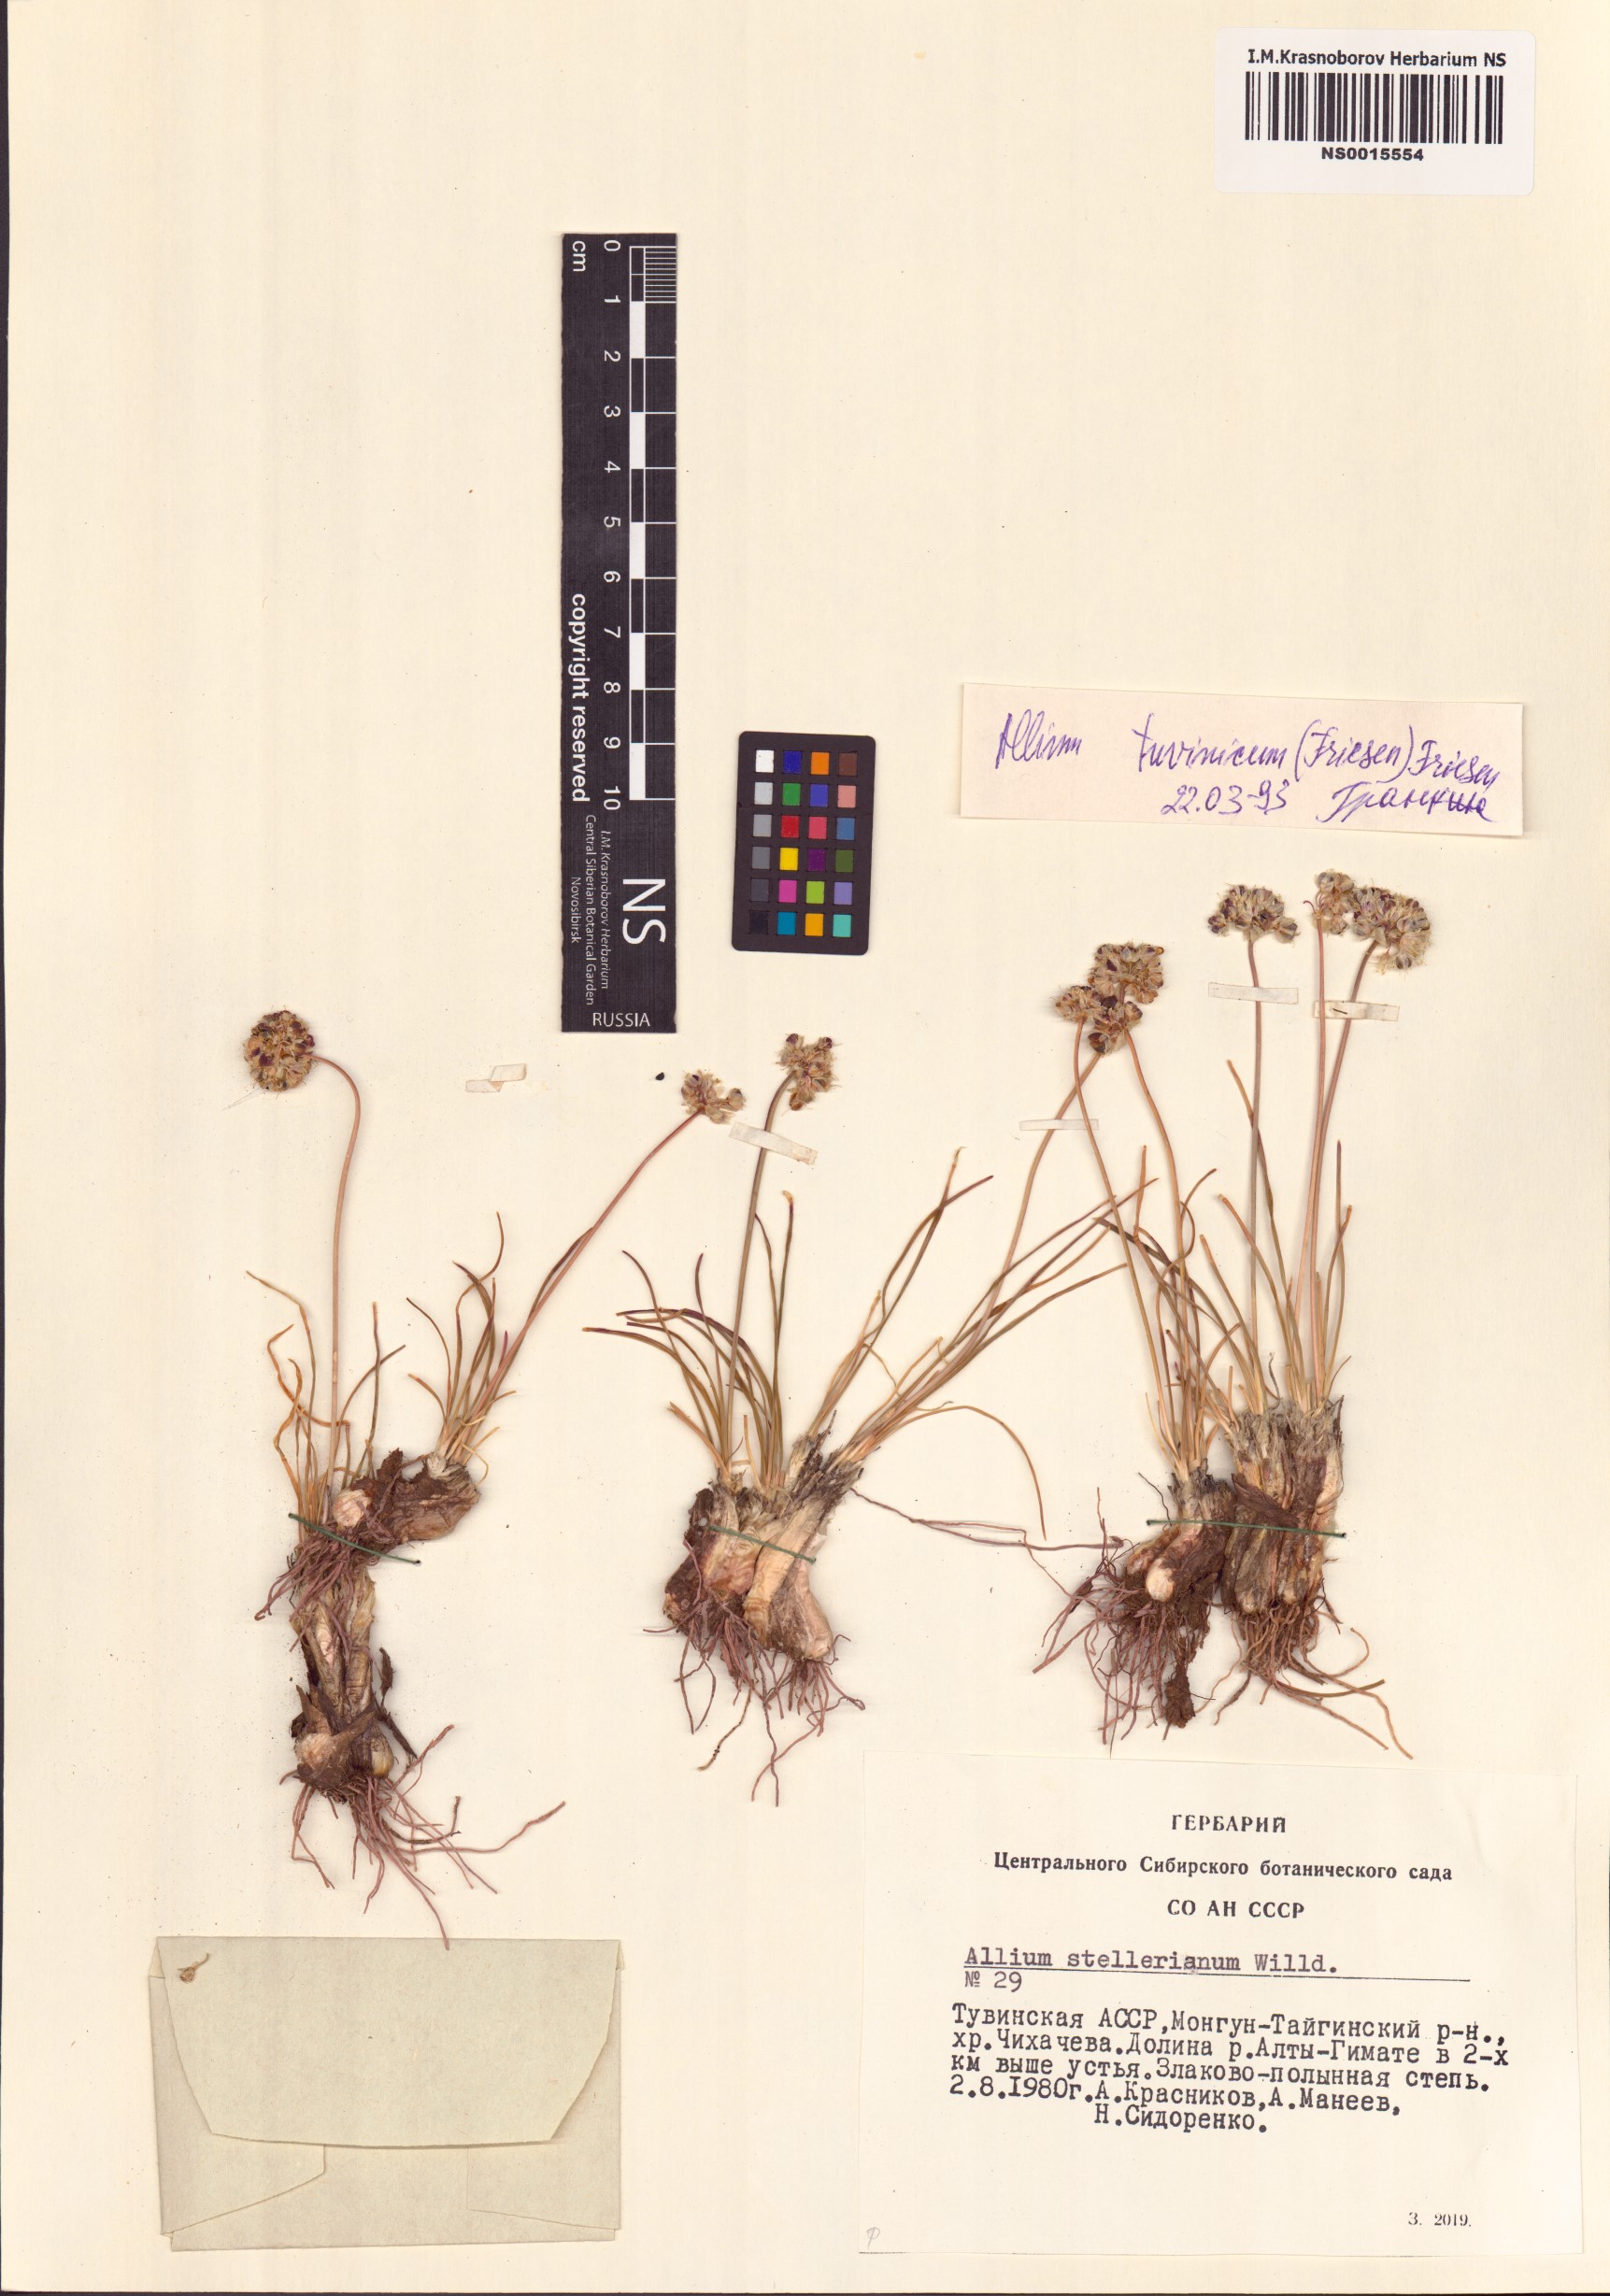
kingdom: Plantae
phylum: Tracheophyta
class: Liliopsida
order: Asparagales
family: Amaryllidaceae
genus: Allium
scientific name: Allium tuvinicum
